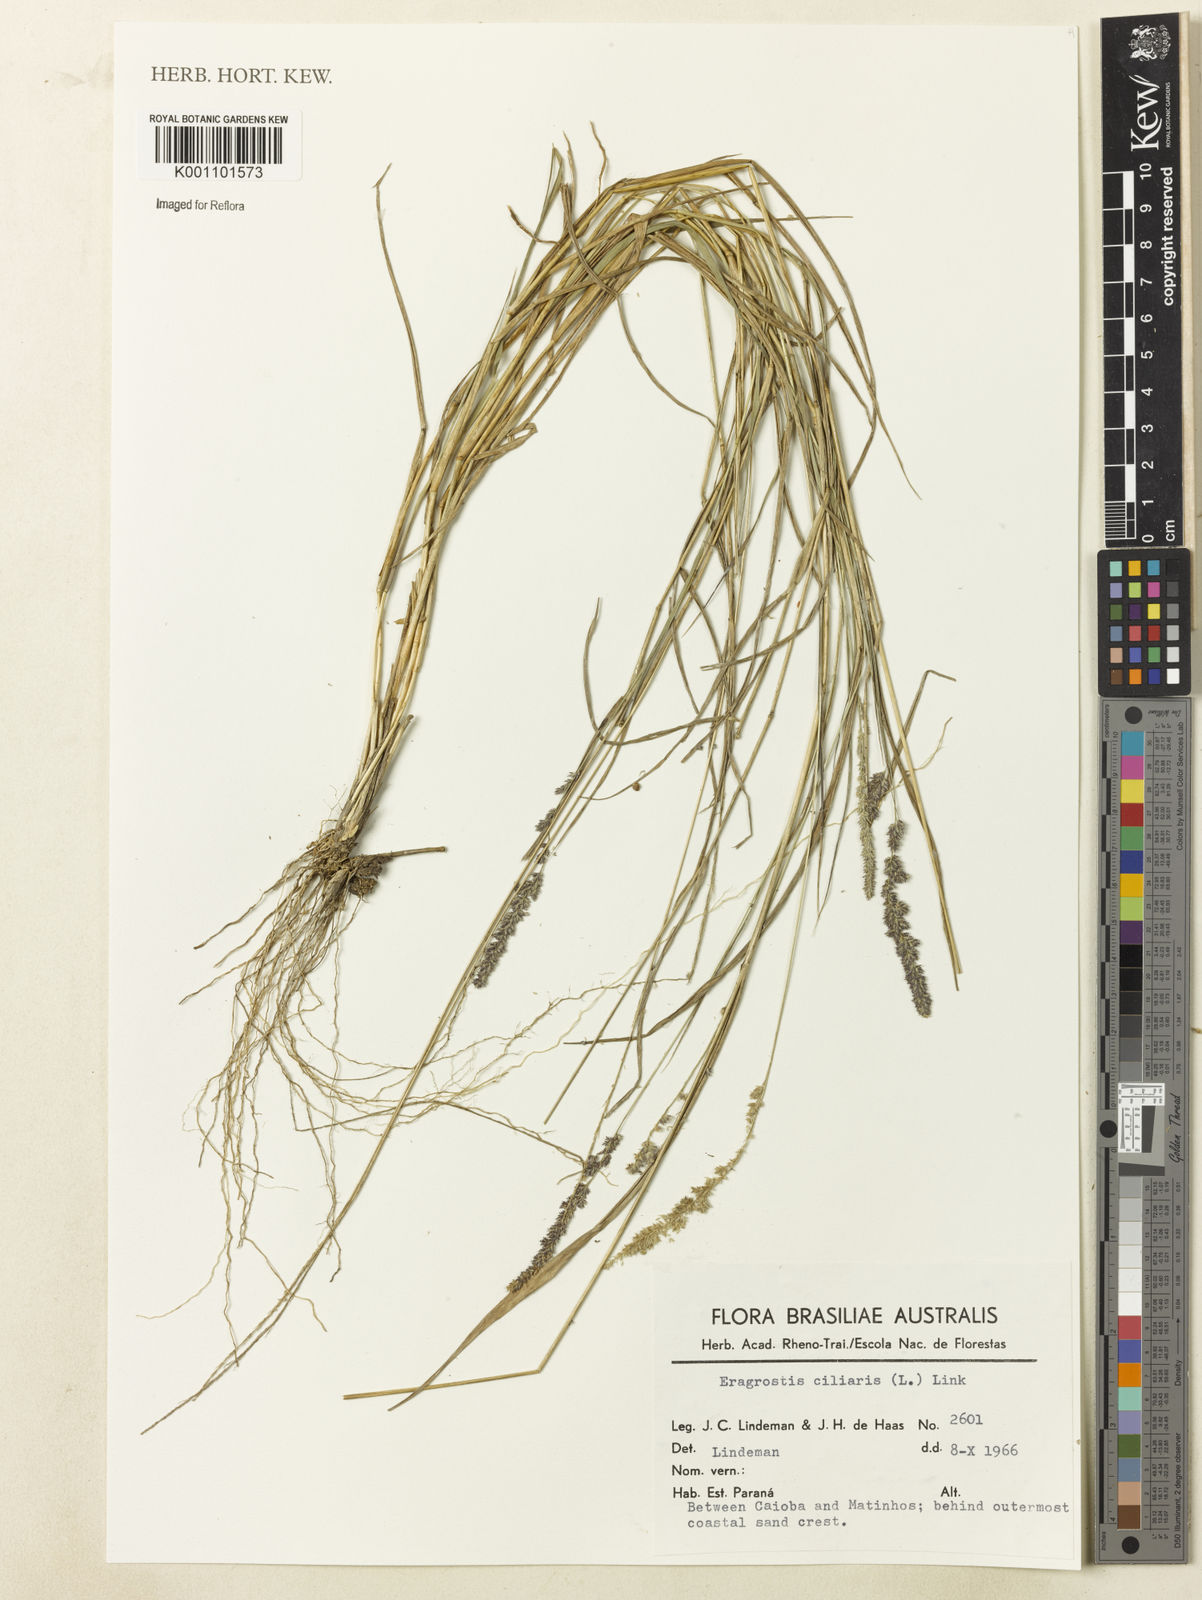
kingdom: Plantae
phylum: Tracheophyta
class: Liliopsida
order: Poales
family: Poaceae
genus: Eragrostis
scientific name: Eragrostis ciliaris
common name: Gophertail lovegrass
